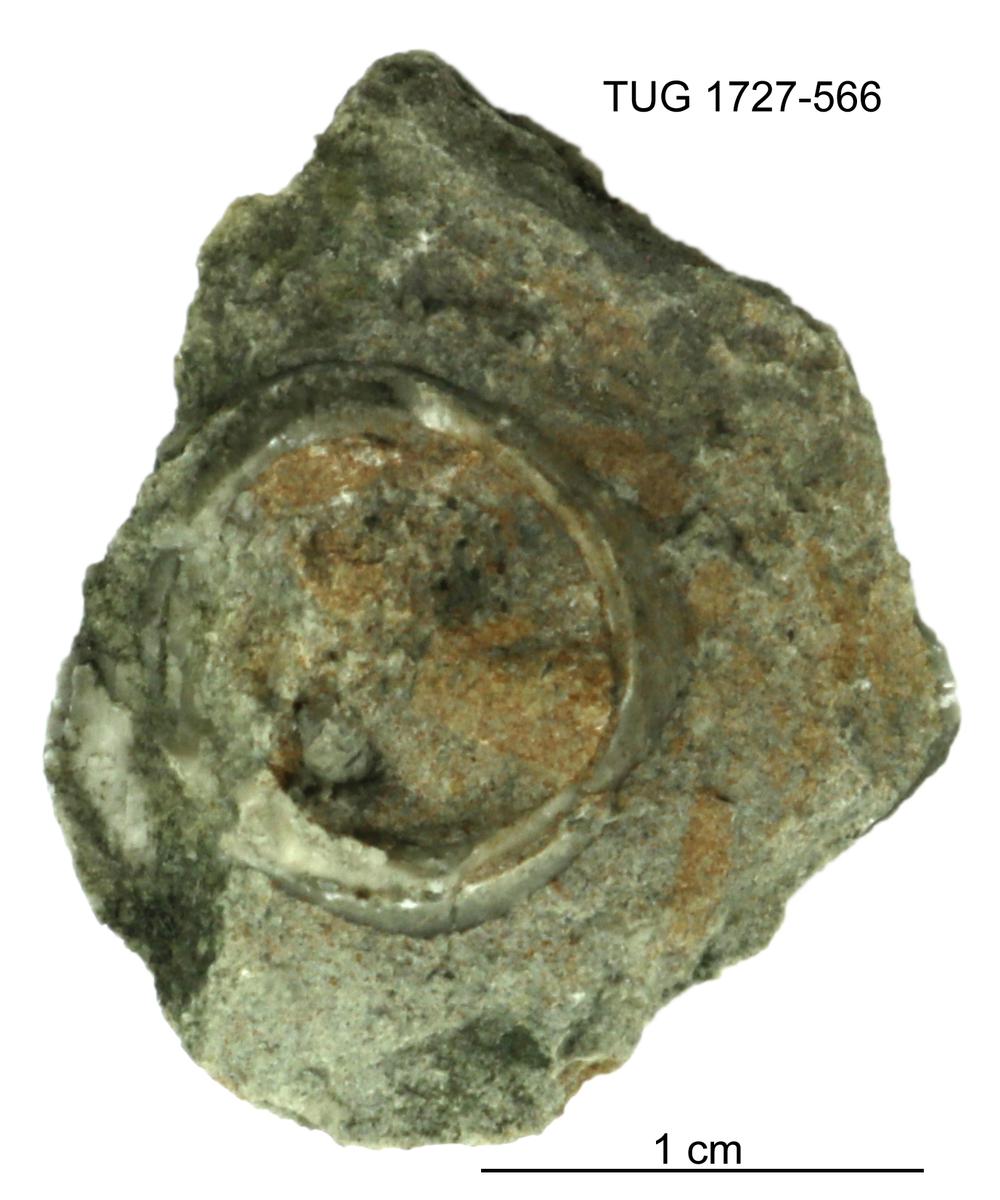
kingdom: Animalia
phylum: Echinodermata
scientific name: Echinodermata
